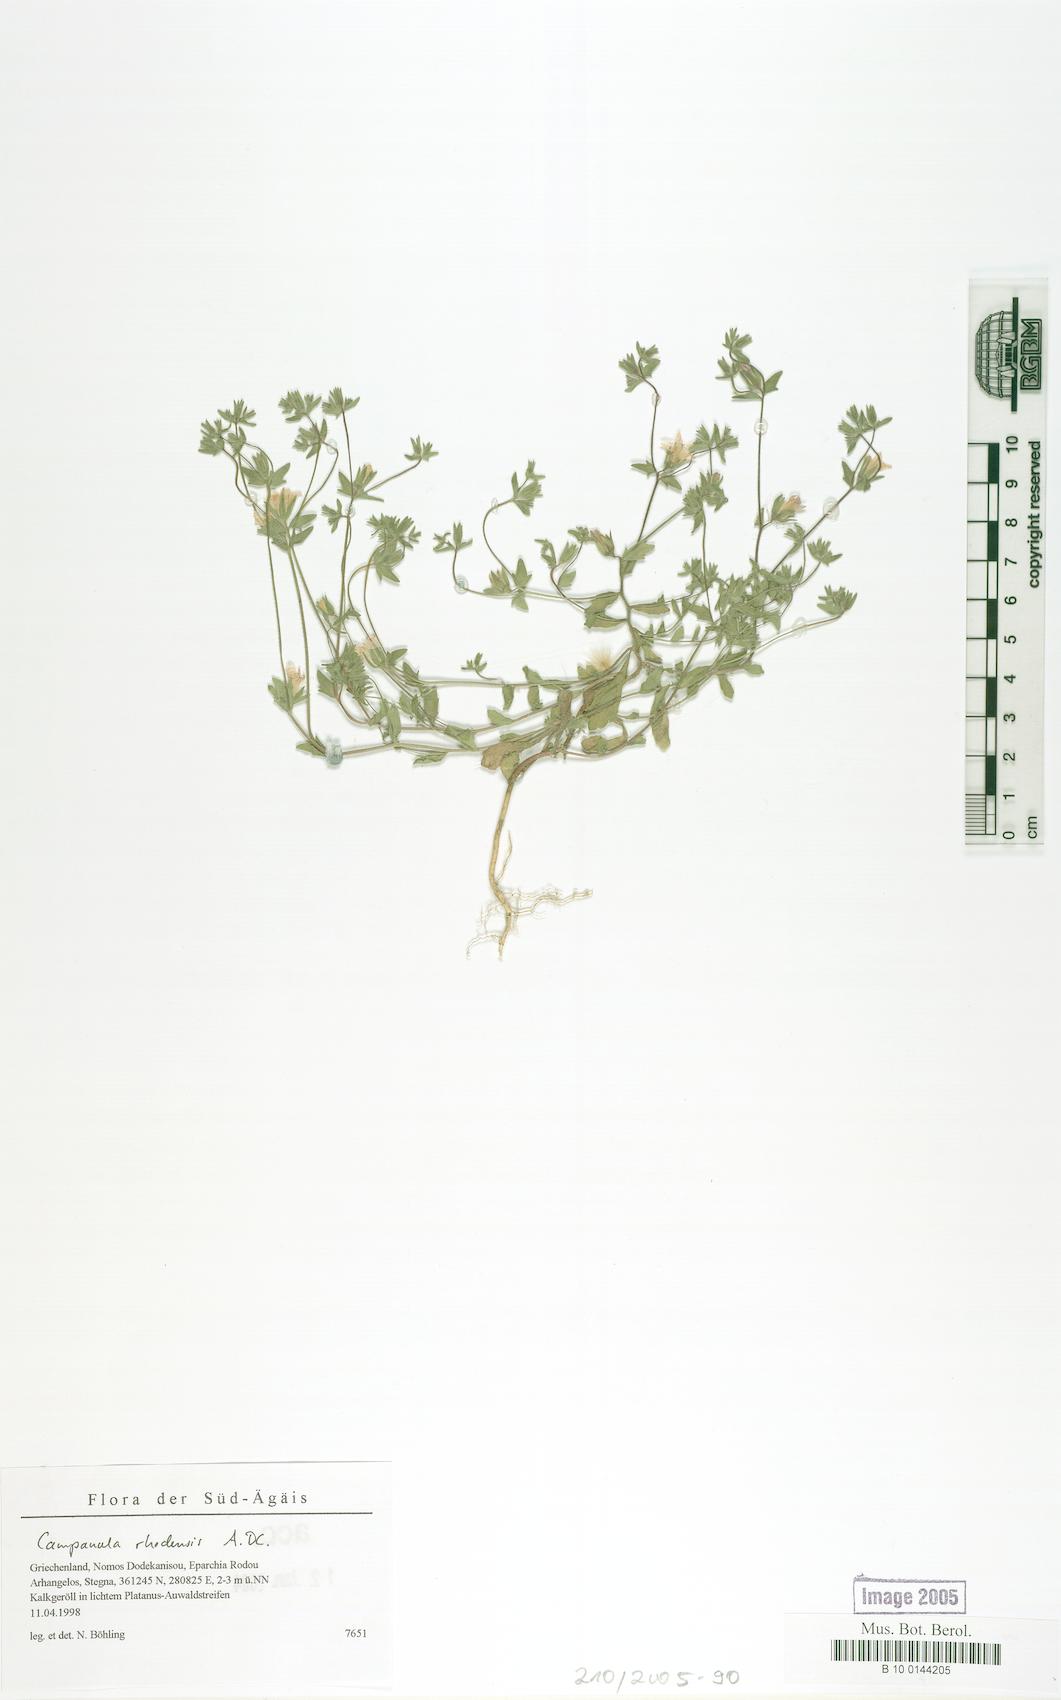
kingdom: Plantae
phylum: Tracheophyta
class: Magnoliopsida
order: Asterales
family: Campanulaceae
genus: Campanula
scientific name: Campanula rhodensis
